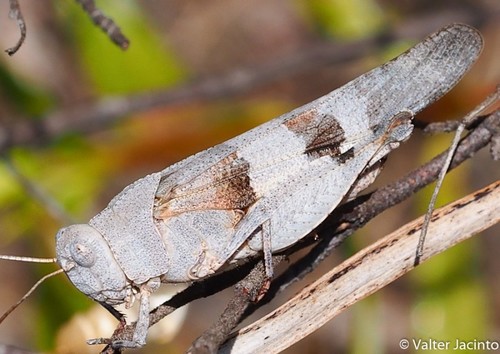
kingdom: Animalia
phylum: Arthropoda
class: Insecta
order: Orthoptera
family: Acrididae
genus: Oedipoda
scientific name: Oedipoda coerulea
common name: Iberian band-winged grasshopper
